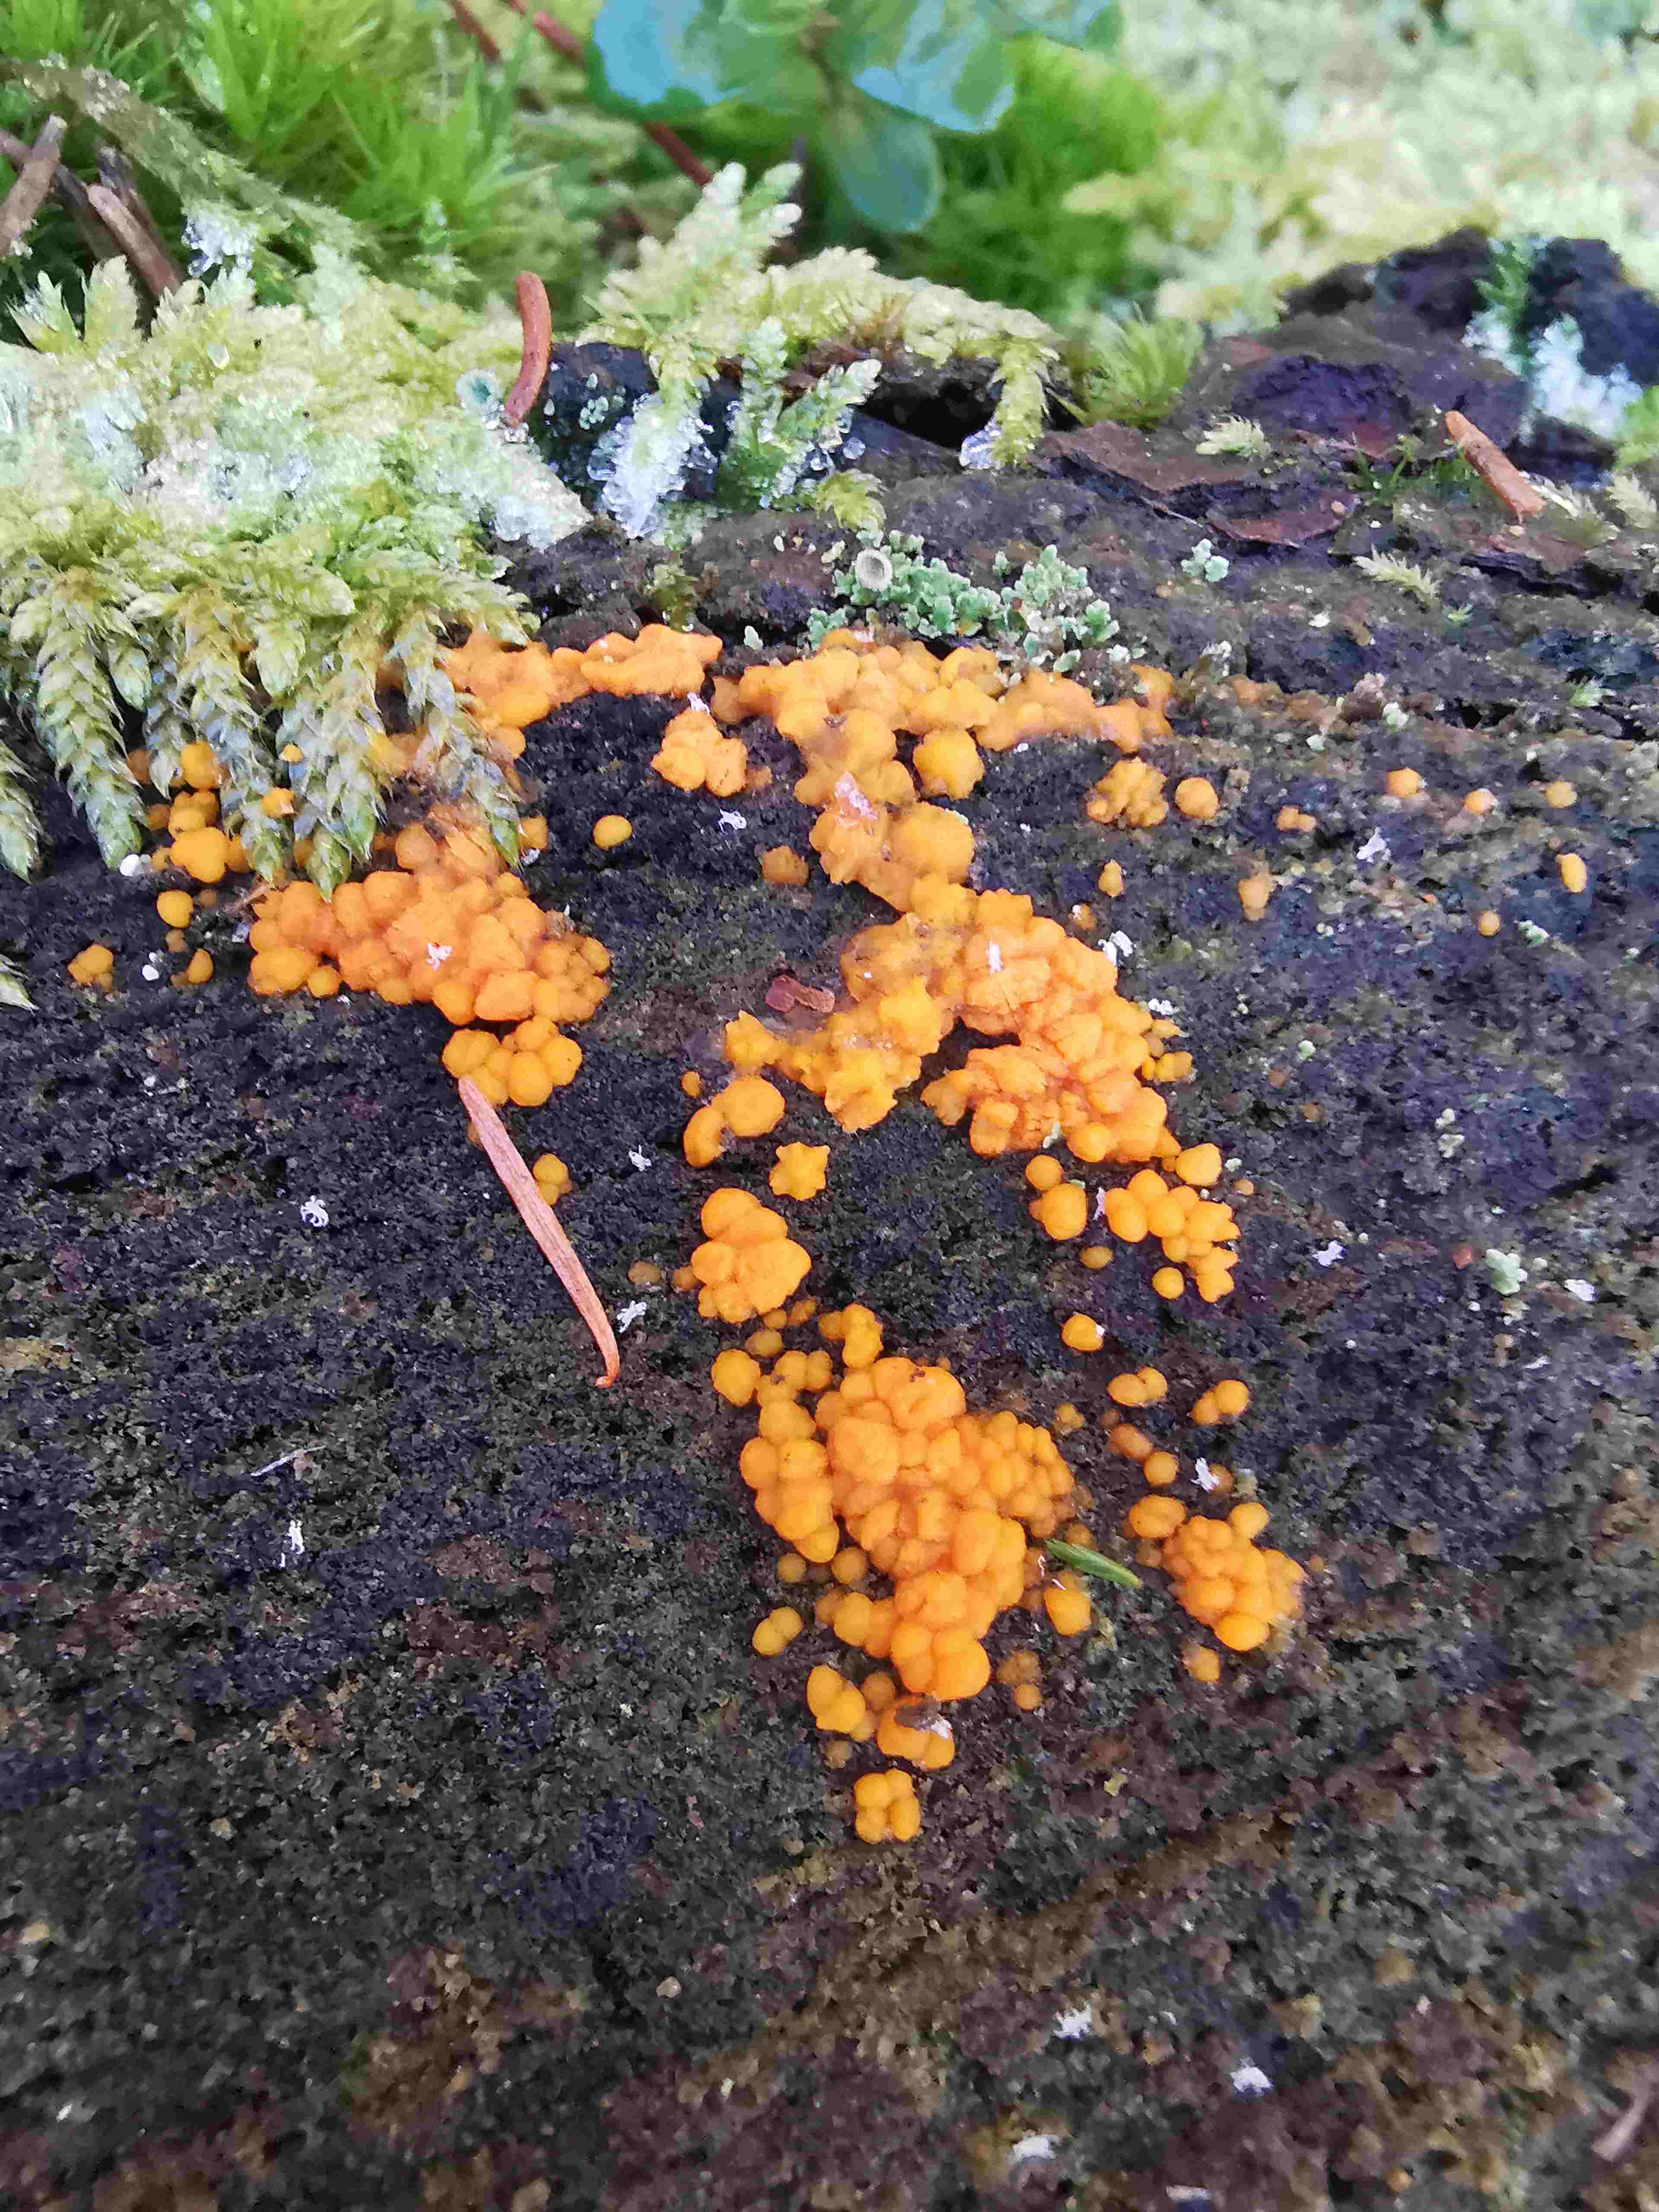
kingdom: Fungi
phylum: Basidiomycota
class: Dacrymycetes
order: Dacrymycetales
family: Dacrymycetaceae
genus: Dacrymyces
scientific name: Dacrymyces stillatus
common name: almindelig tåresvamp
